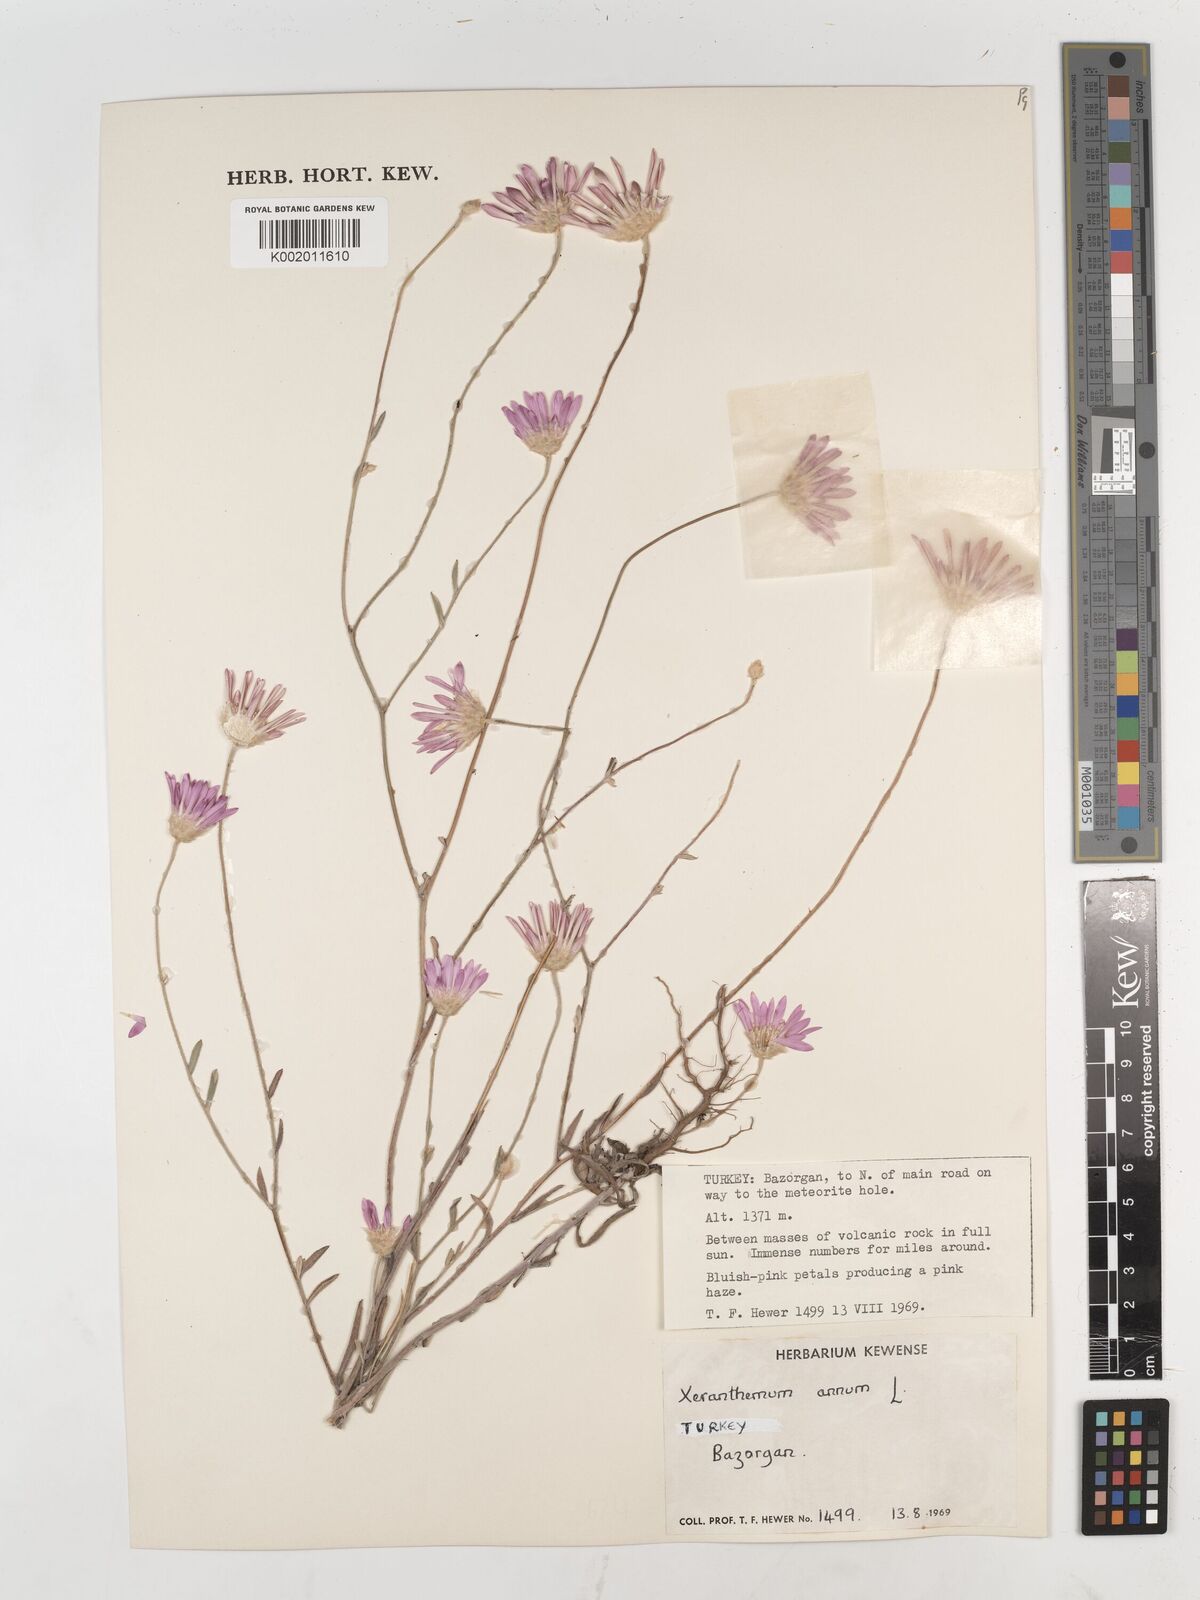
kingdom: Plantae
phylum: Tracheophyta
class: Magnoliopsida
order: Asterales
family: Asteraceae
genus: Xeranthemum
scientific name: Xeranthemum annuum
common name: Immortelle
